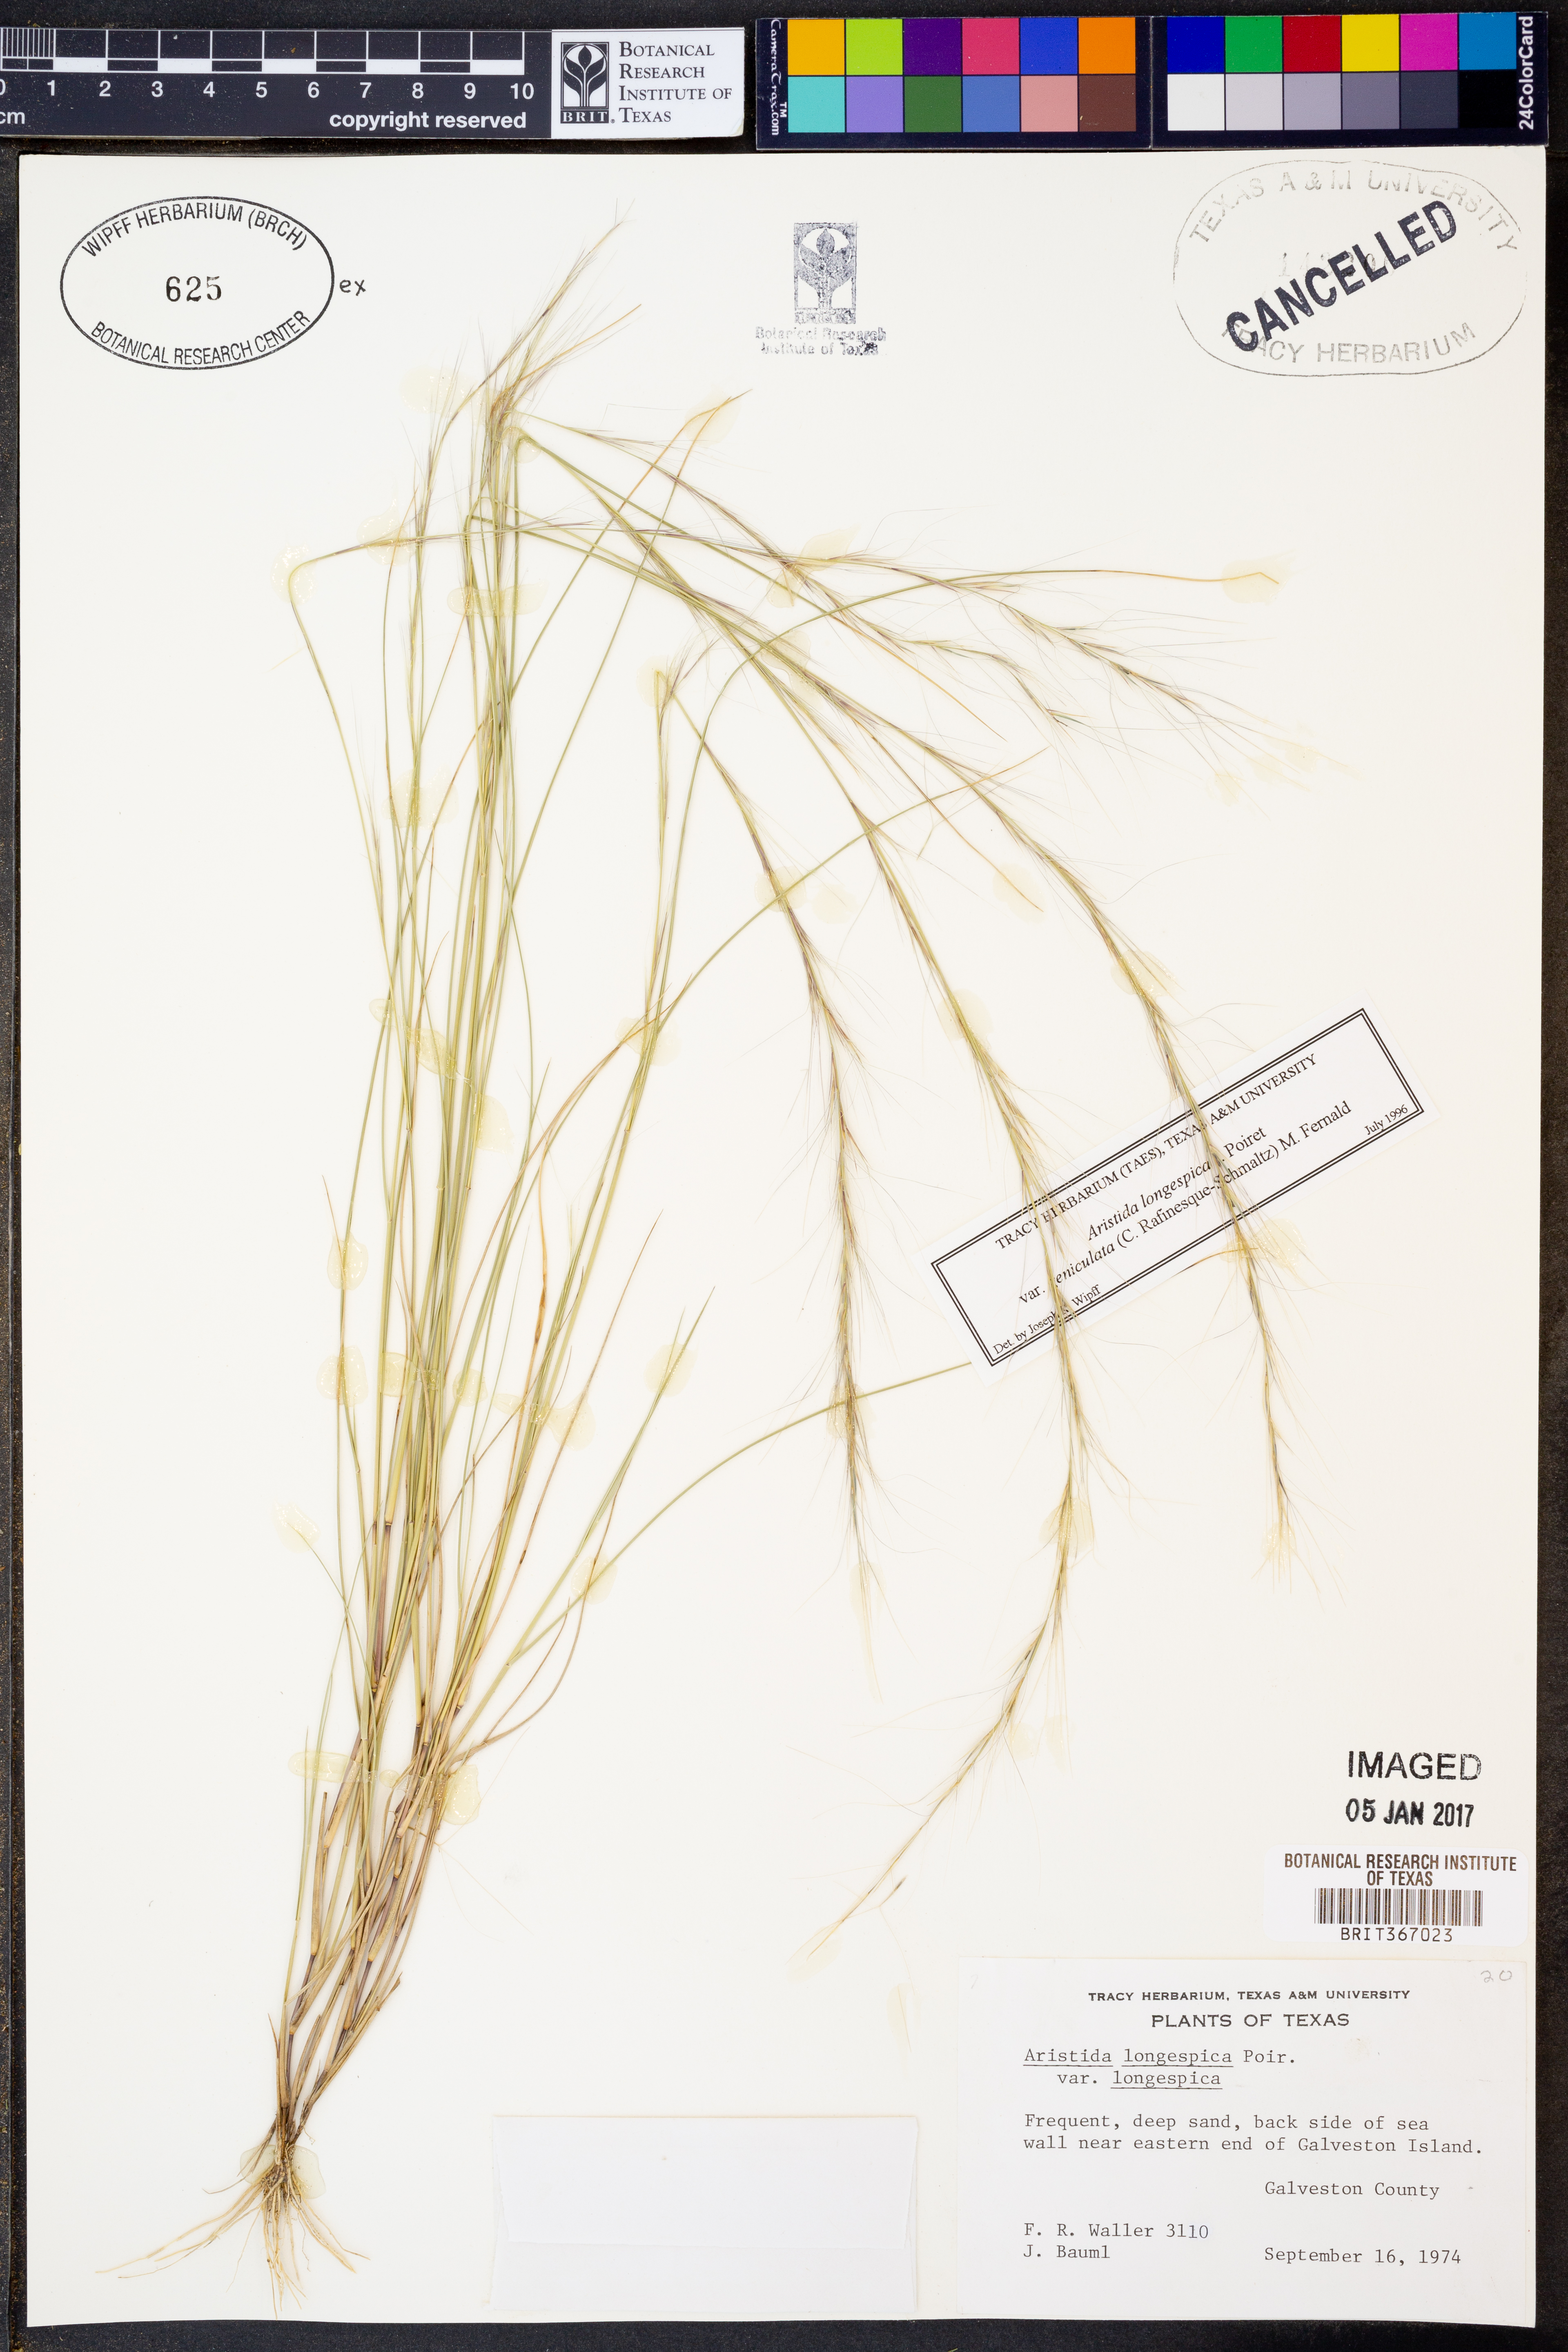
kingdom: Plantae
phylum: Tracheophyta
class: Liliopsida
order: Poales
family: Poaceae
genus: Aristida
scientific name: Aristida longespica
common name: Long-spiked triple-awned grass
